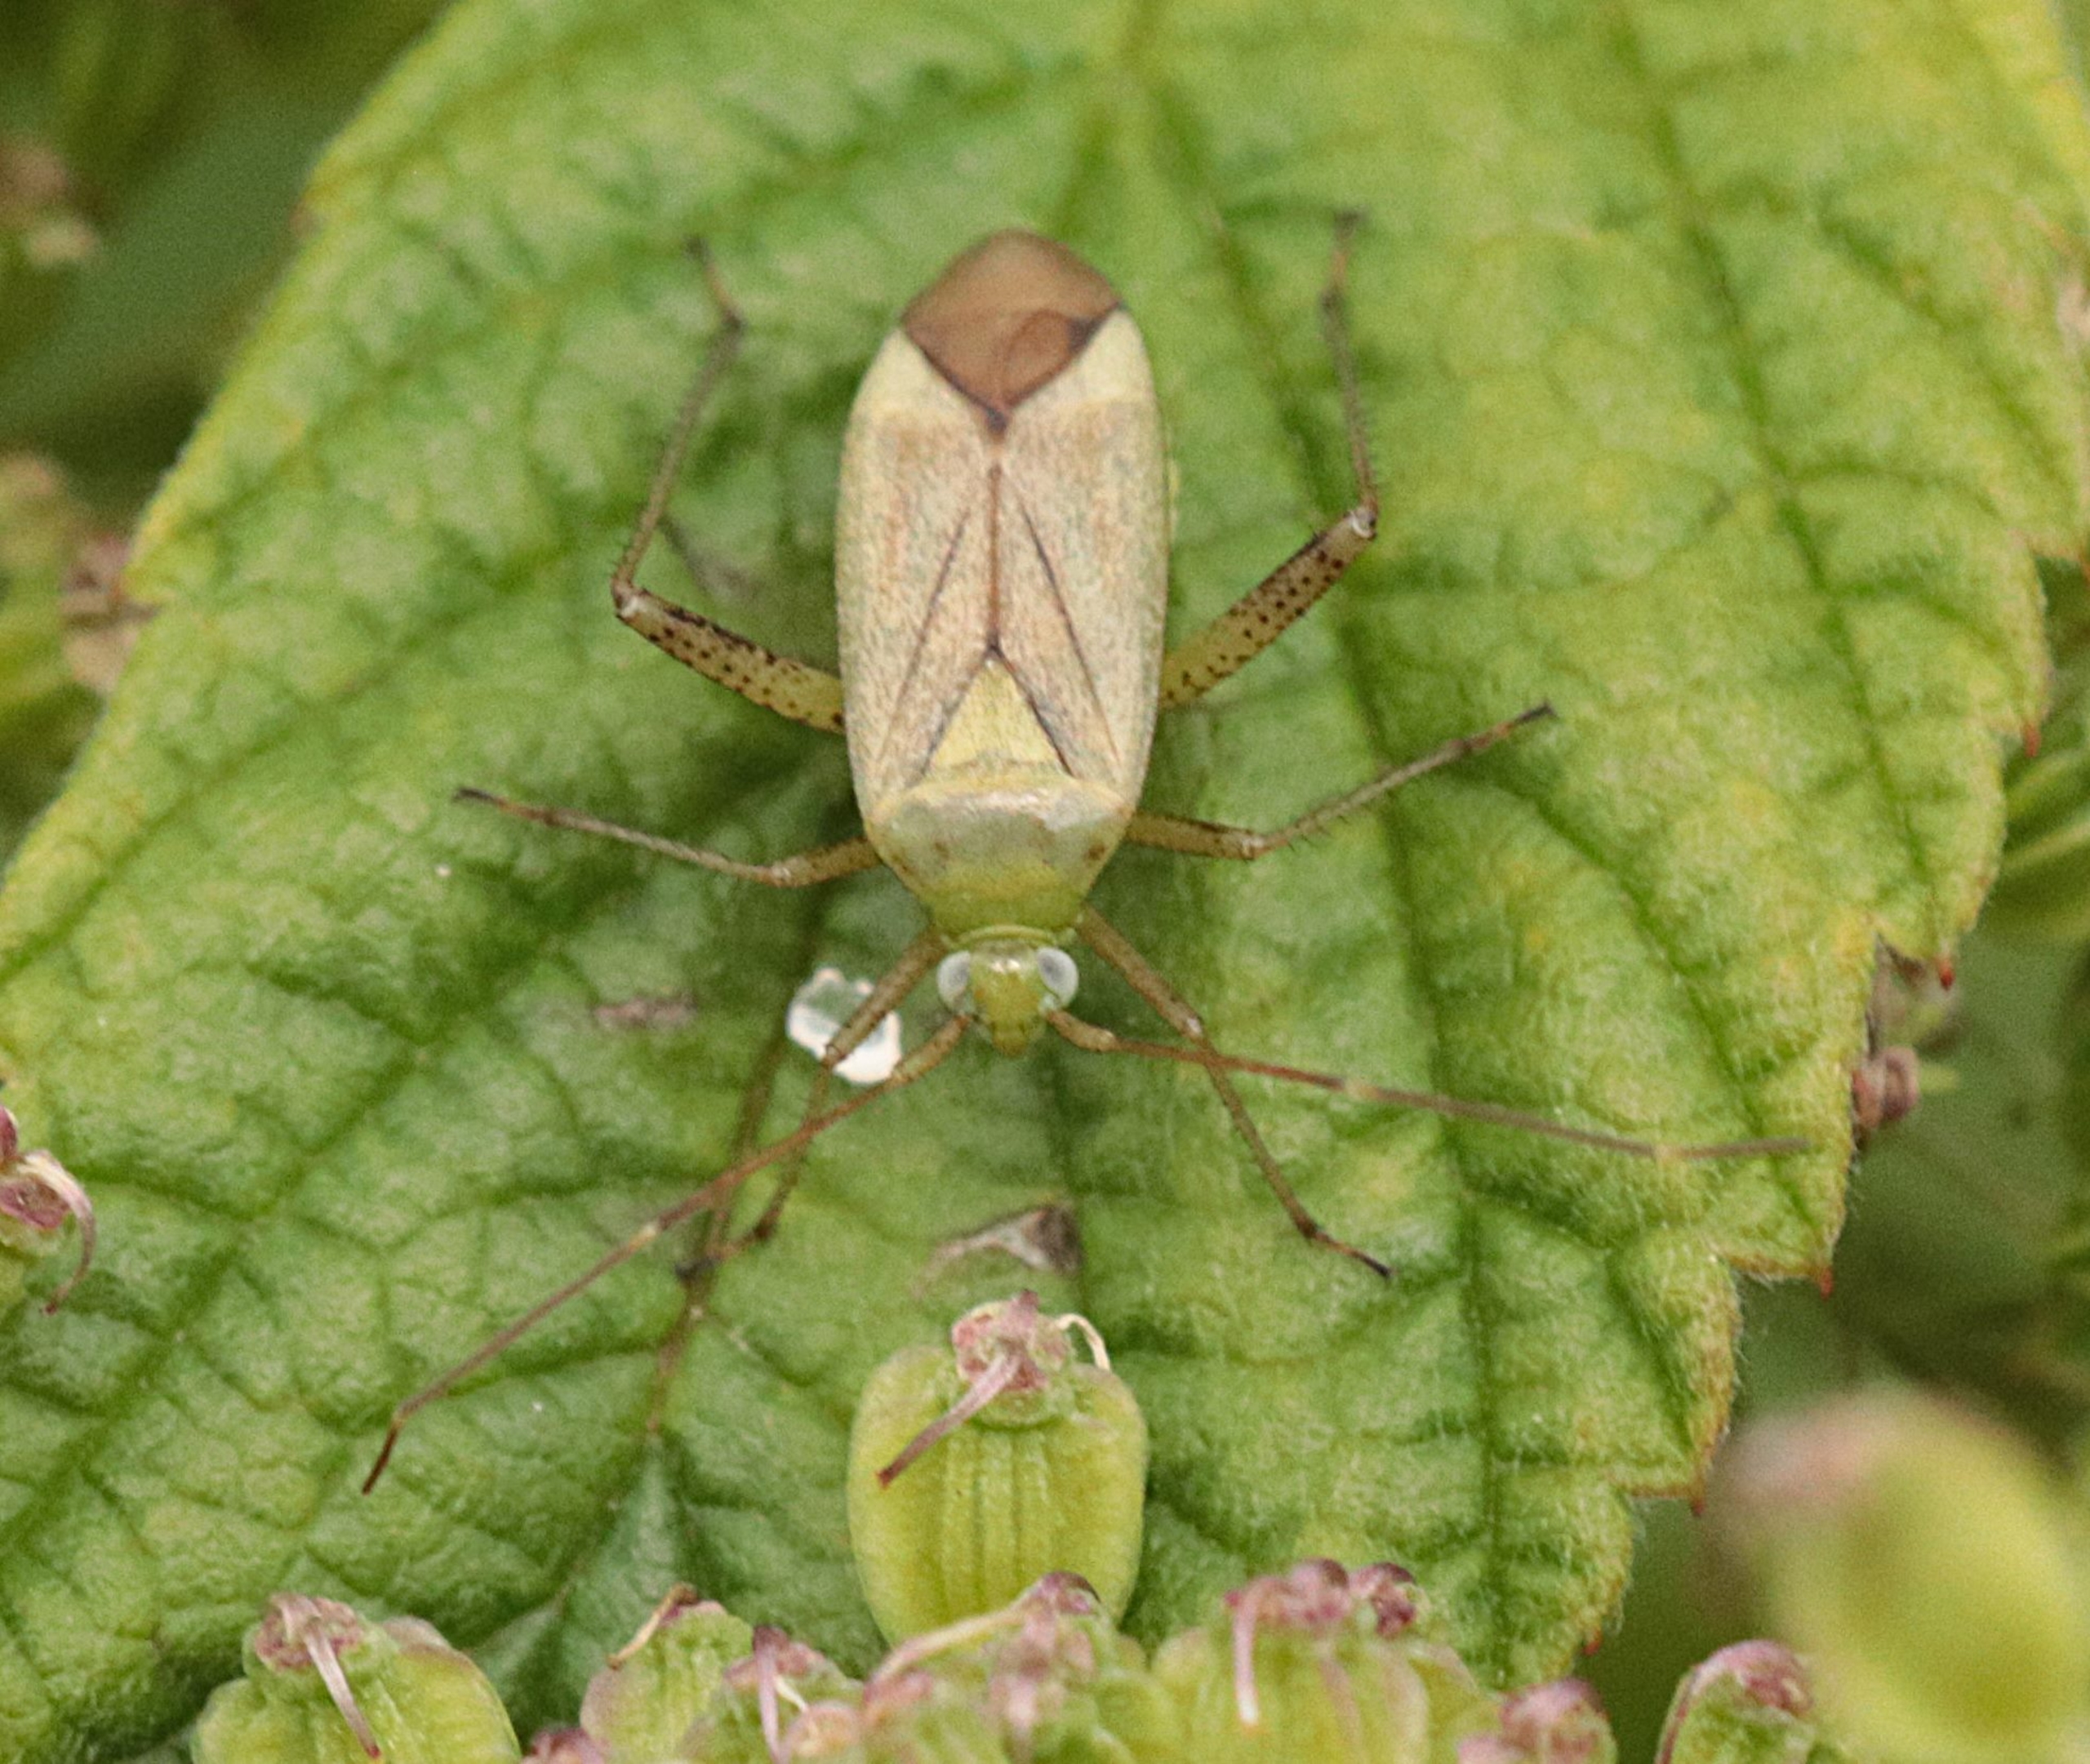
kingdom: Animalia
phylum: Arthropoda
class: Insecta
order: Hemiptera
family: Miridae
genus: Adelphocoris
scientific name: Adelphocoris quadripunctatus
